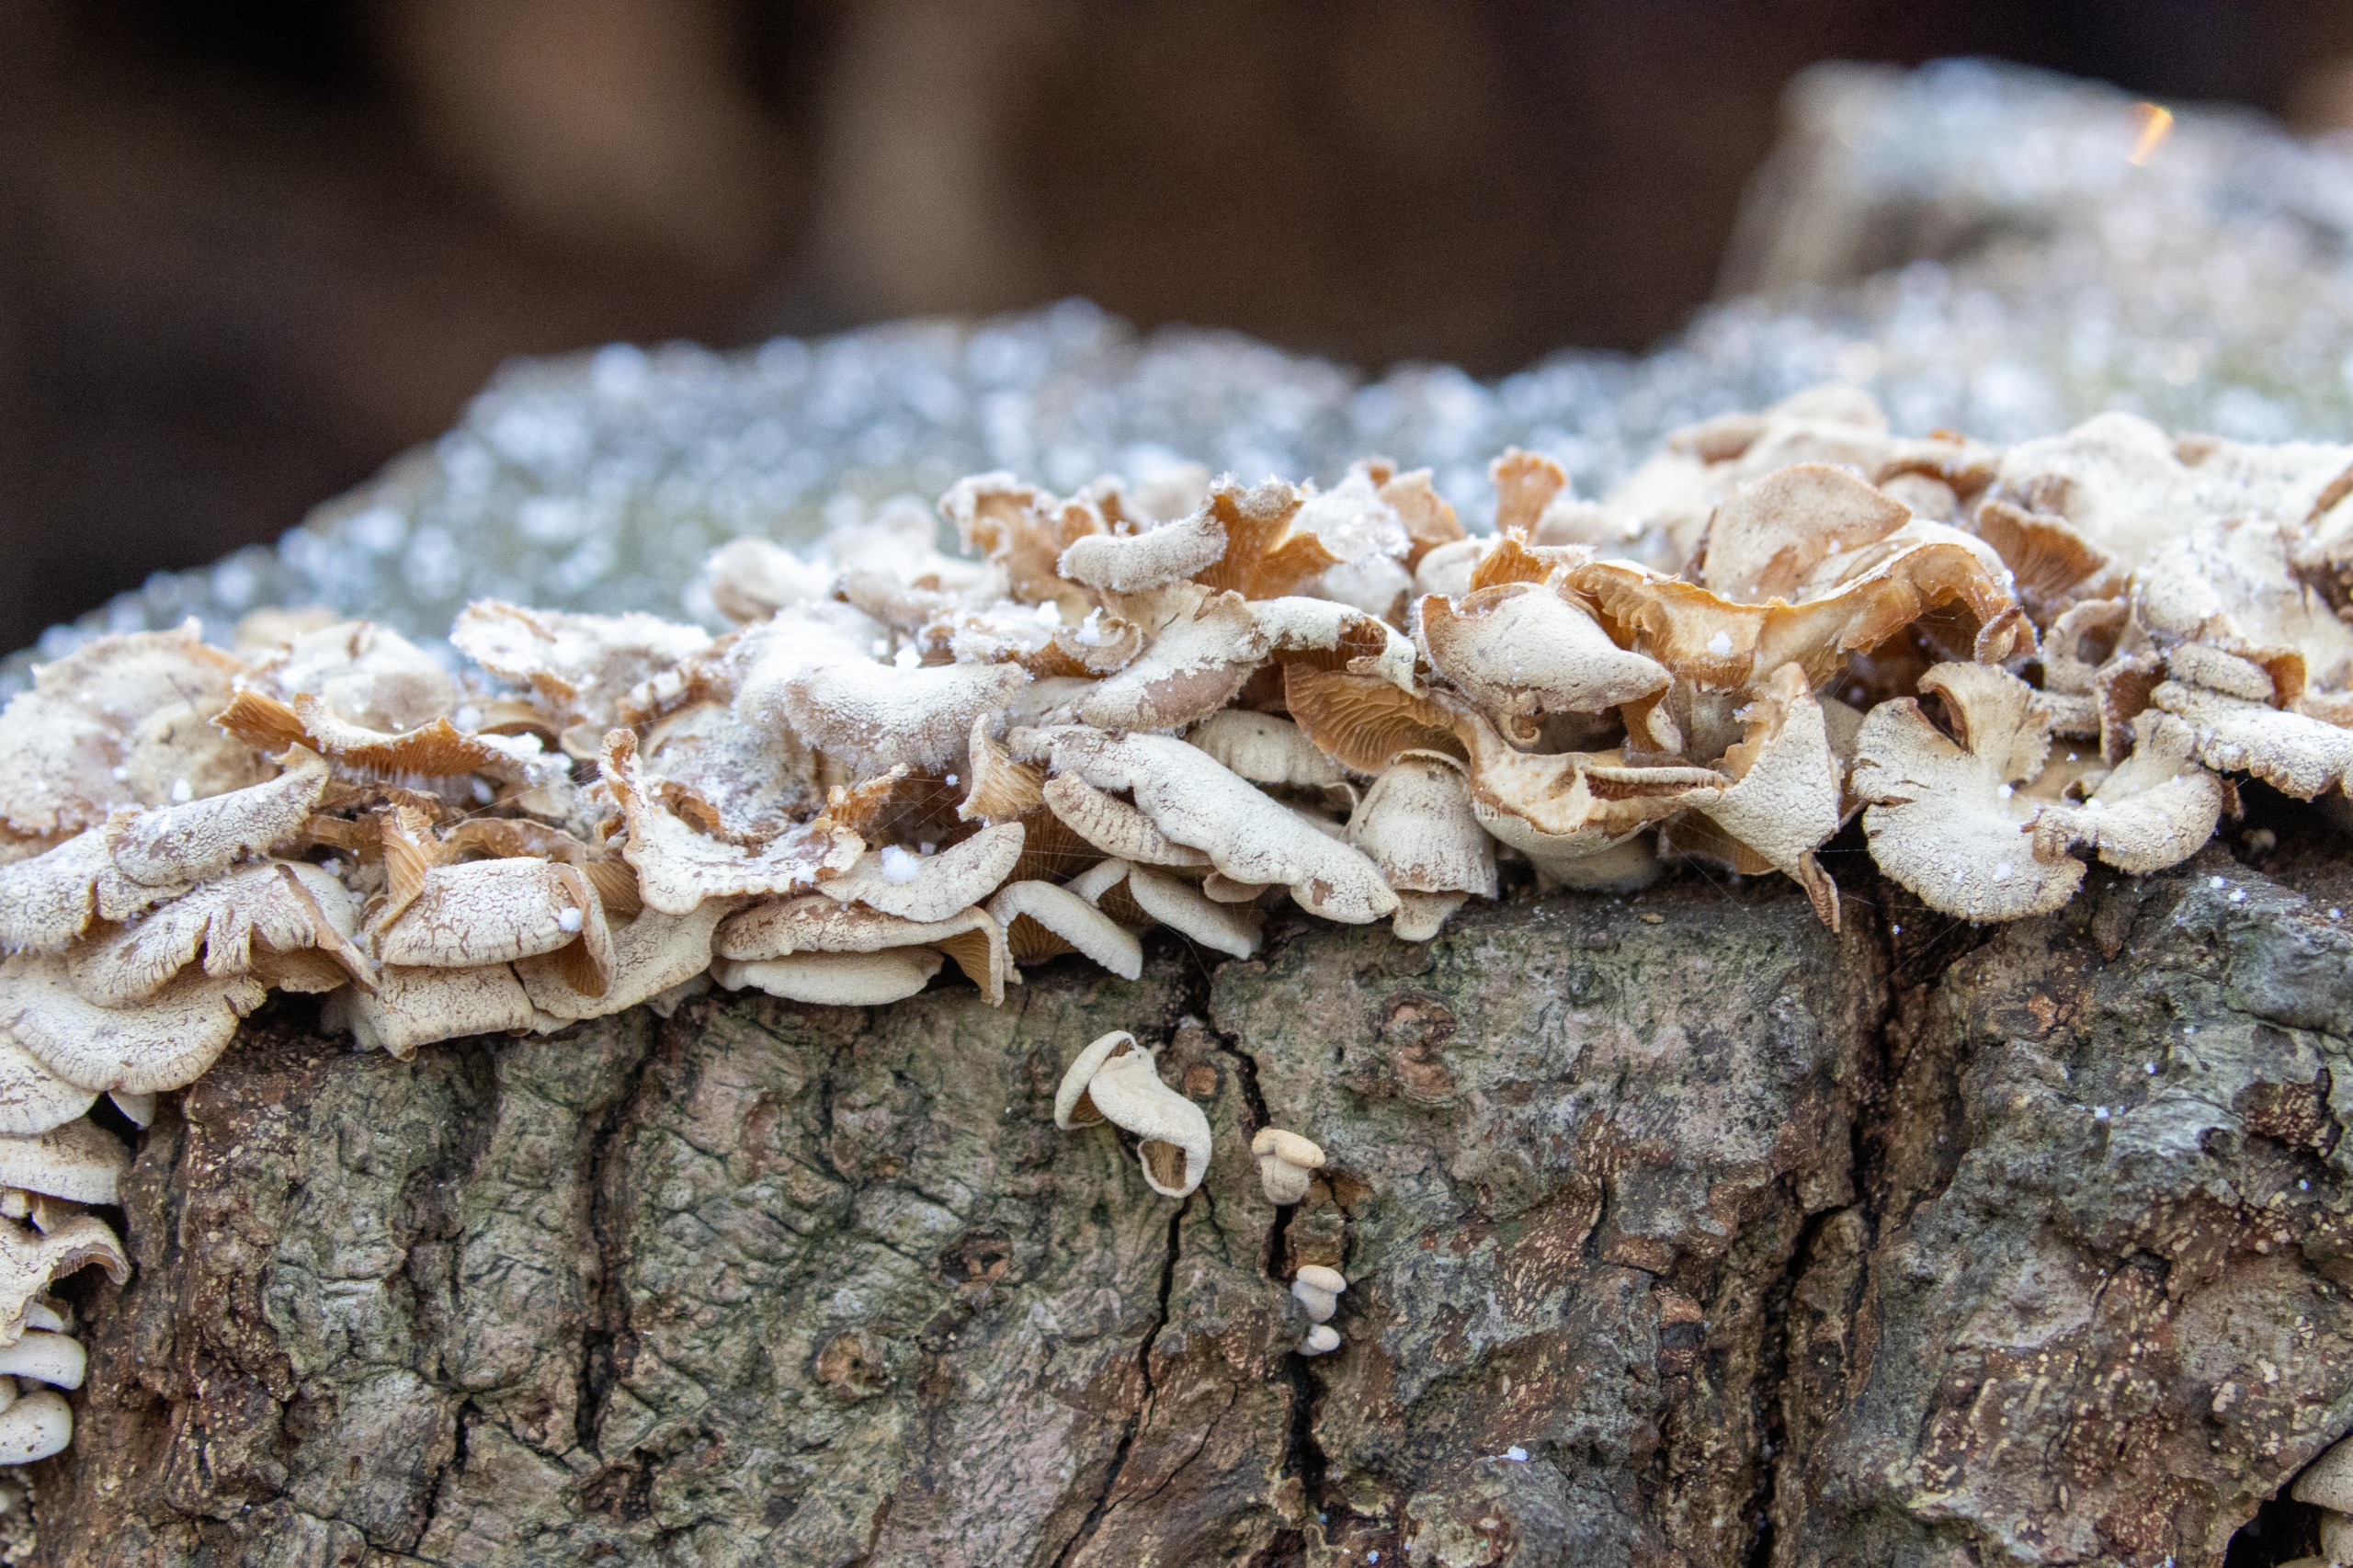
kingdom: Fungi
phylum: Basidiomycota
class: Agaricomycetes
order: Agaricales
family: Mycenaceae
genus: Panellus
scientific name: Panellus stipticus
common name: Kliddet epaulethat
